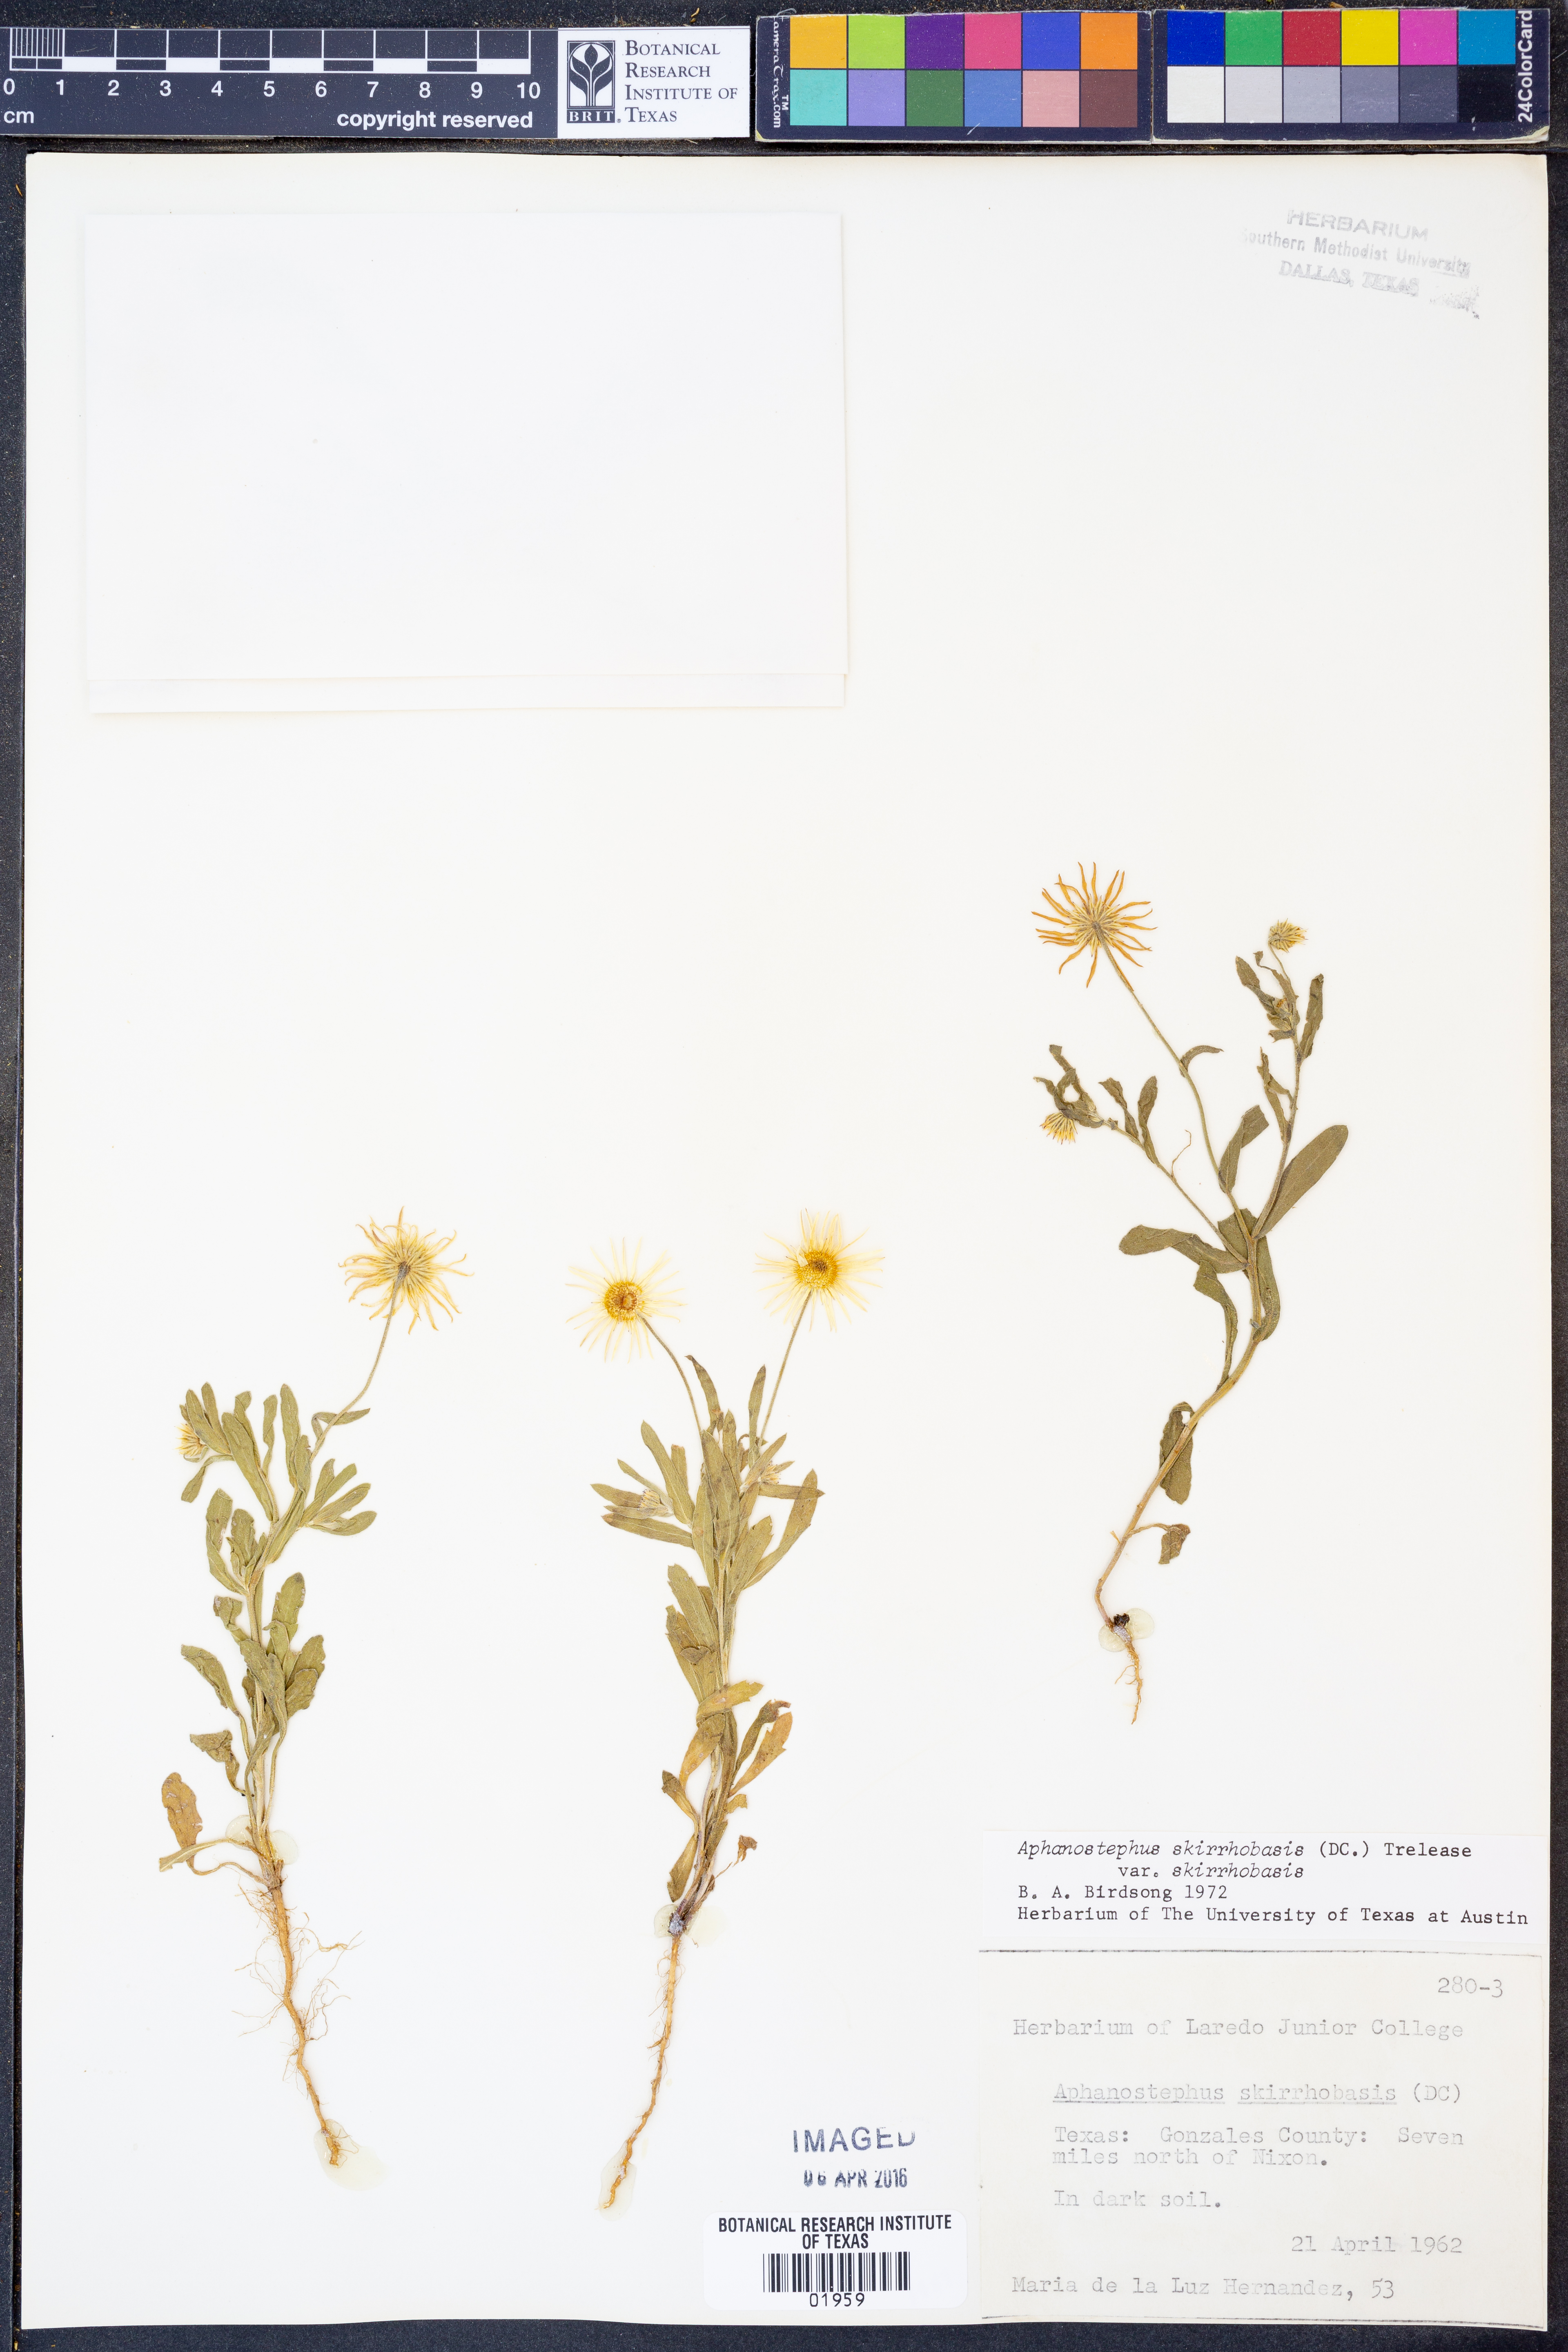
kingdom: Plantae
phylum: Tracheophyta
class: Magnoliopsida
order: Asterales
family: Asteraceae
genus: Aphanostephus
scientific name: Aphanostephus skirrhobasis
